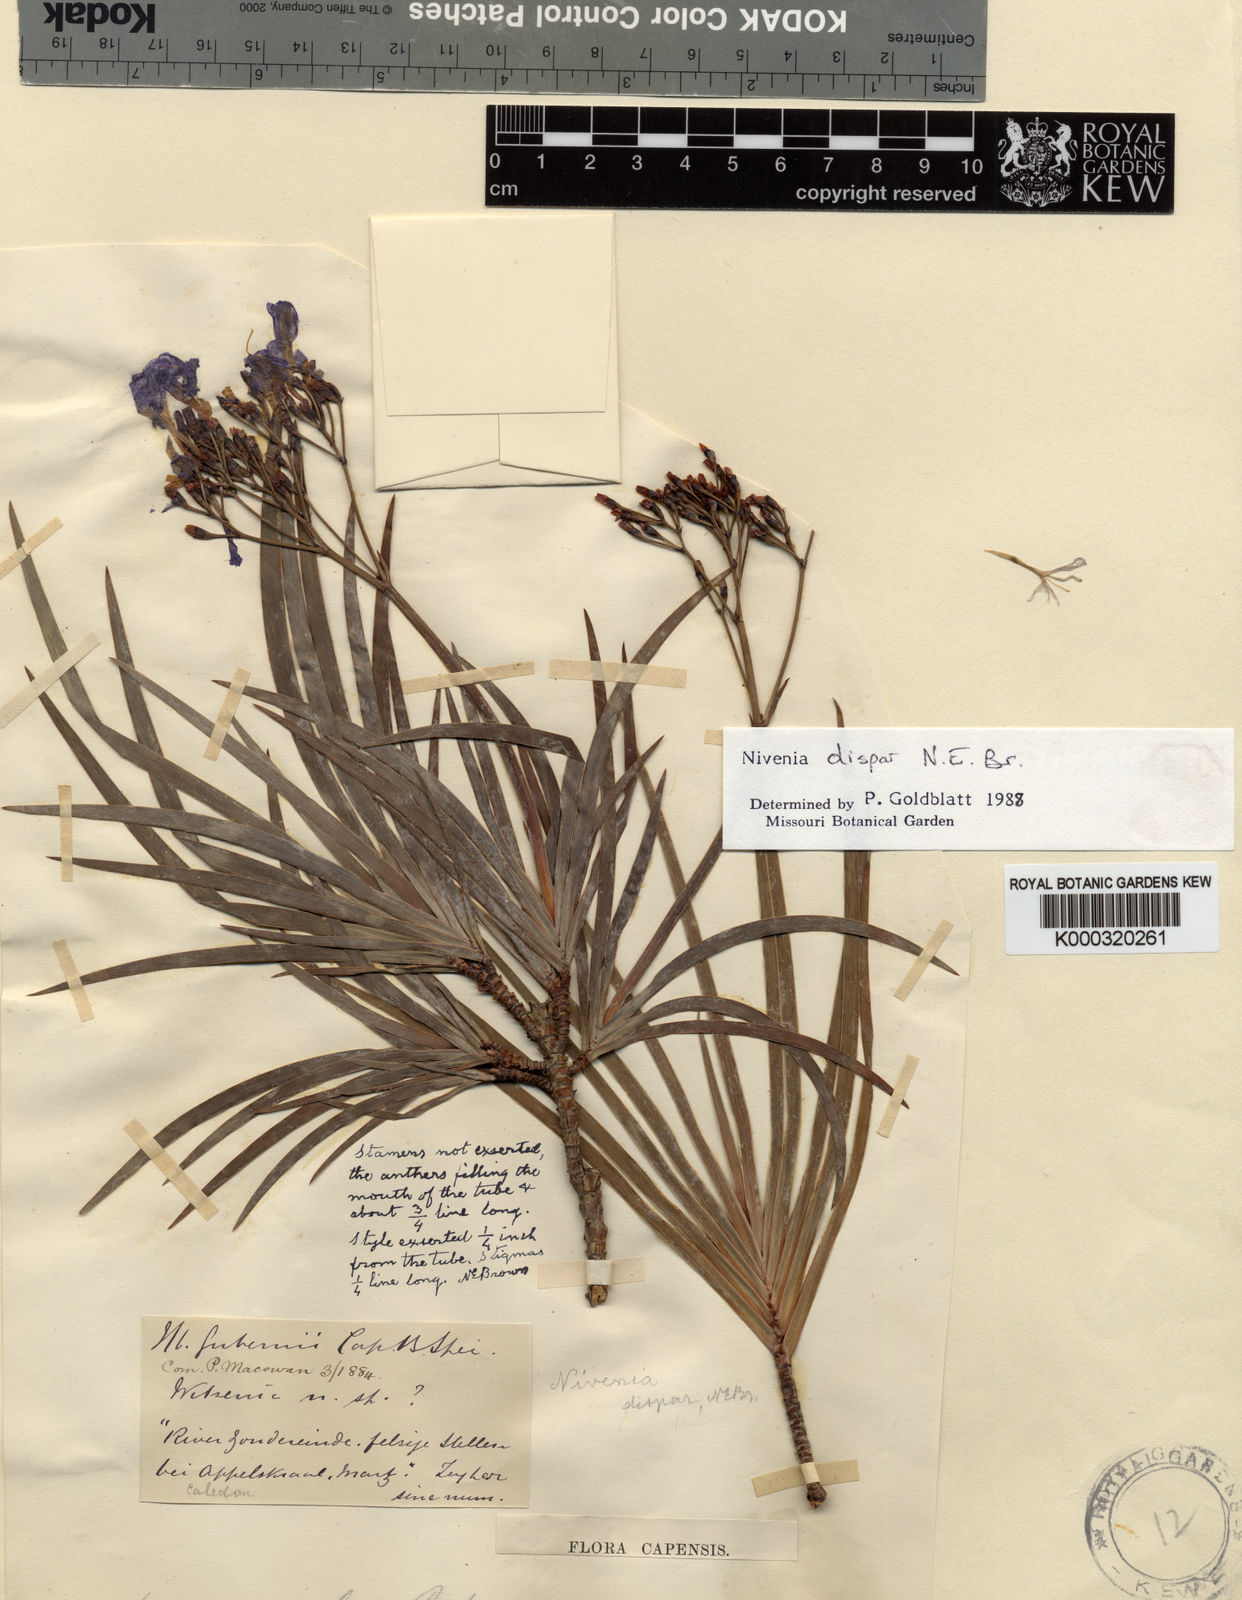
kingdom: Plantae
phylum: Tracheophyta
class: Liliopsida
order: Asparagales
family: Iridaceae
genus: Nivenia
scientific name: Nivenia dispar
